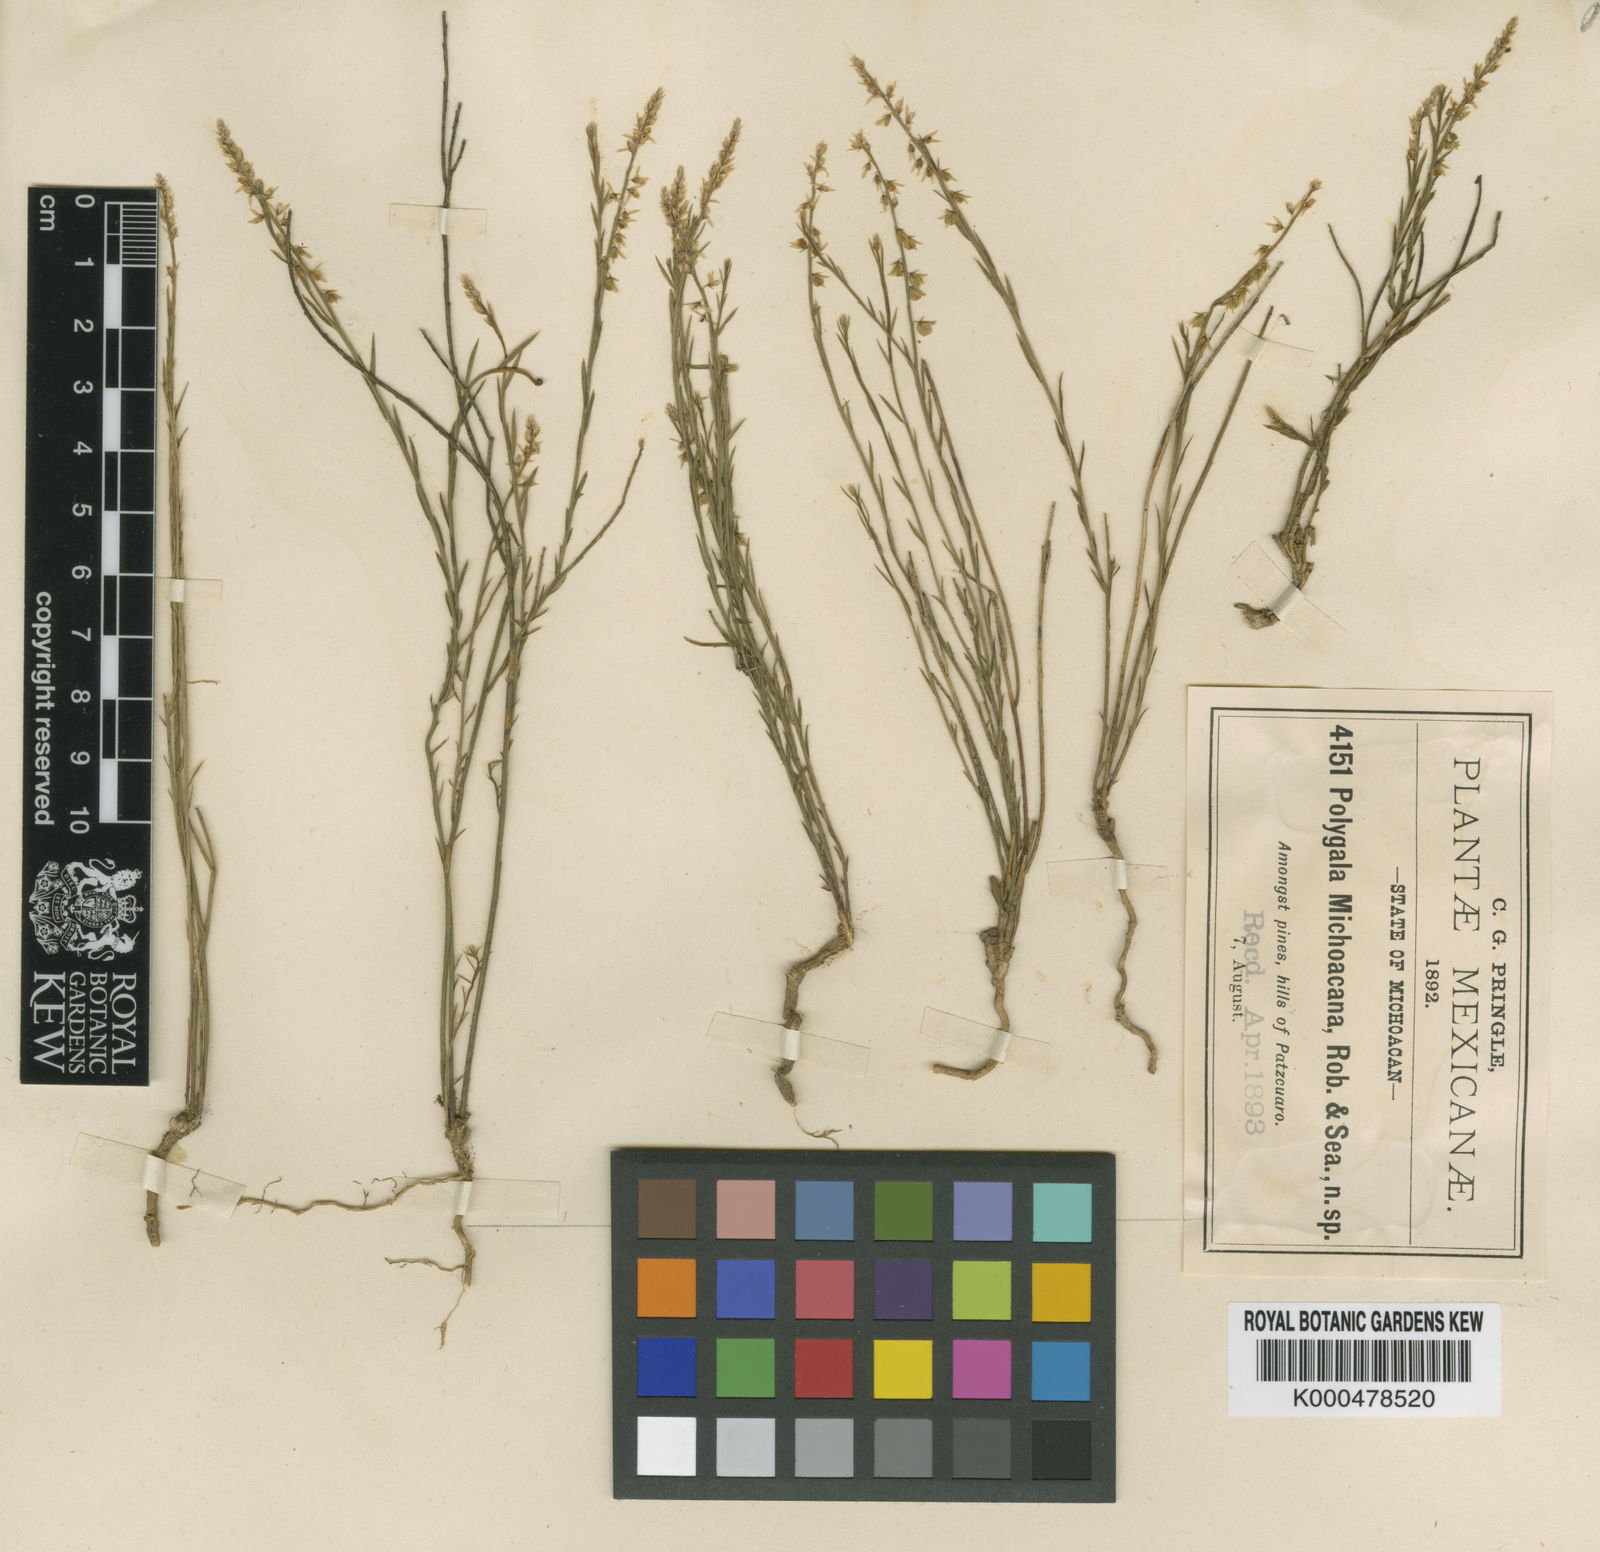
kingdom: Plantae
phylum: Tracheophyta
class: Magnoliopsida
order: Fabales
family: Polygalaceae
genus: Polygala
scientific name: Polygala mexicana
